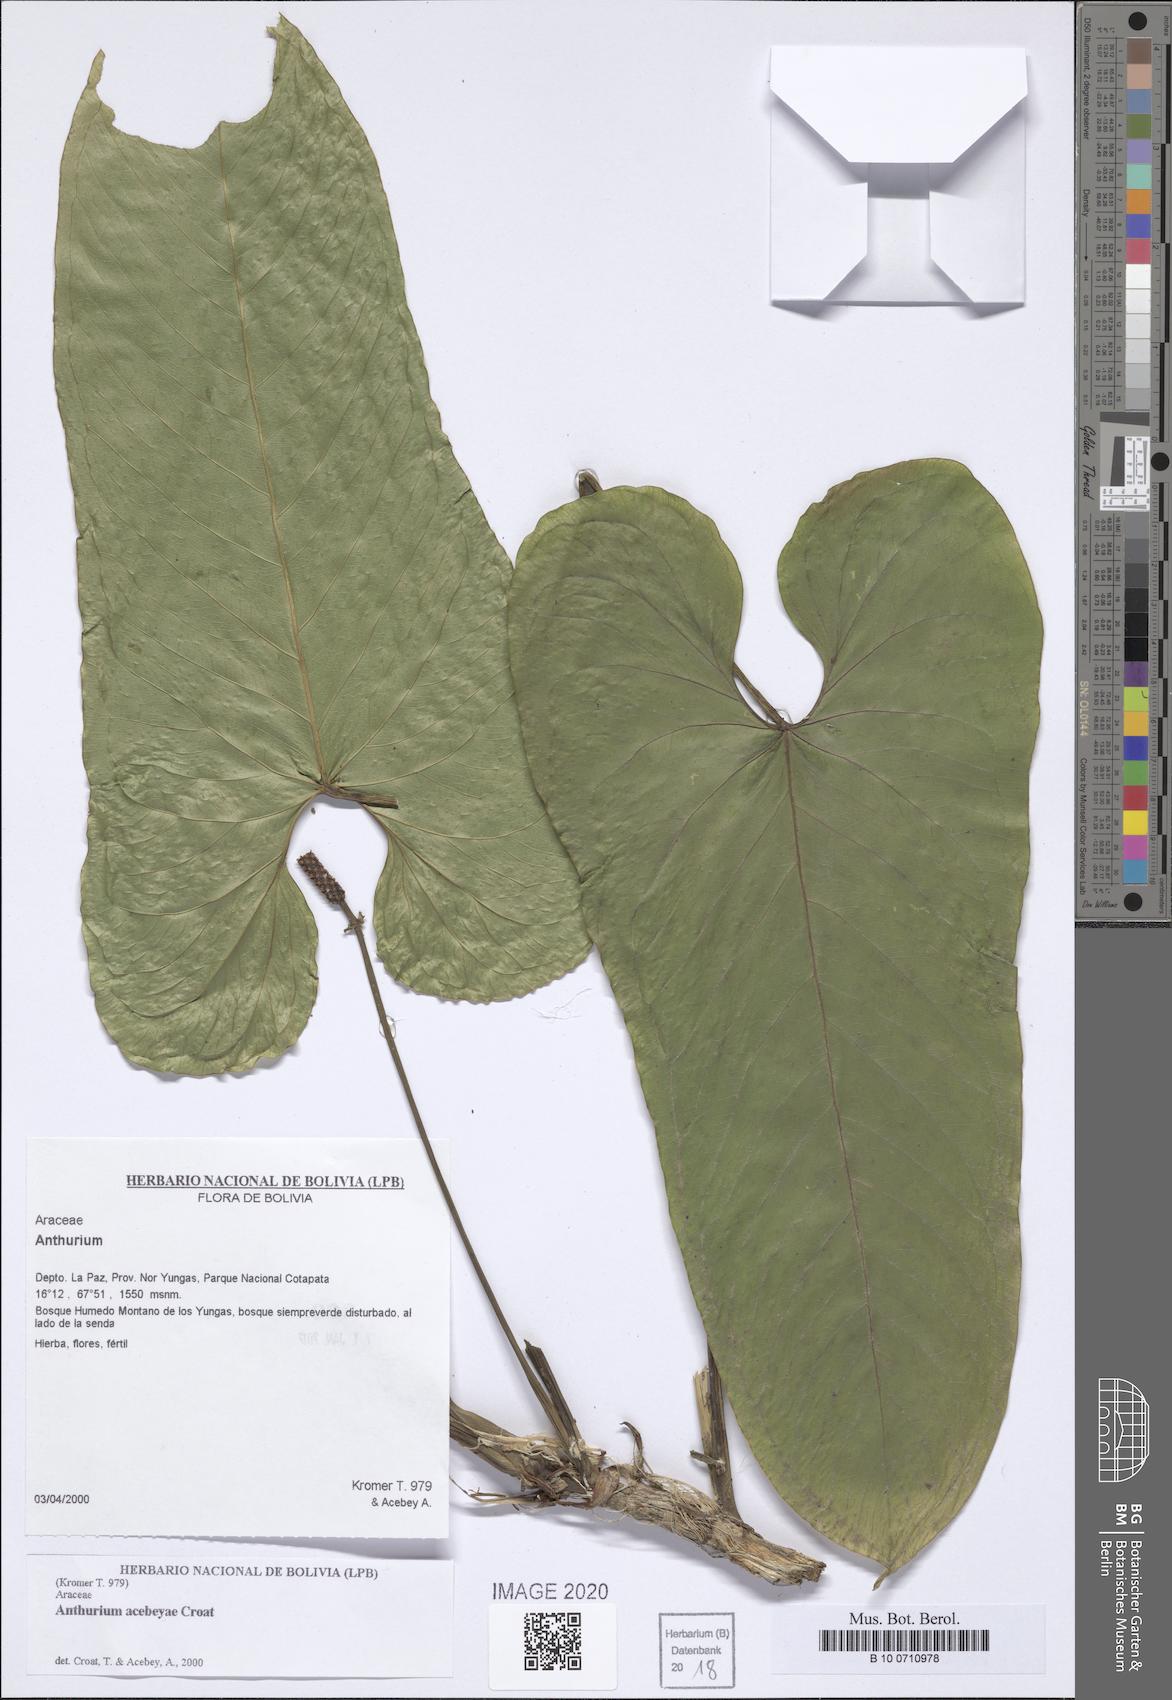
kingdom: Plantae
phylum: Tracheophyta
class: Liliopsida
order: Alismatales
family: Araceae
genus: Anthurium
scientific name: Anthurium acebeyae
